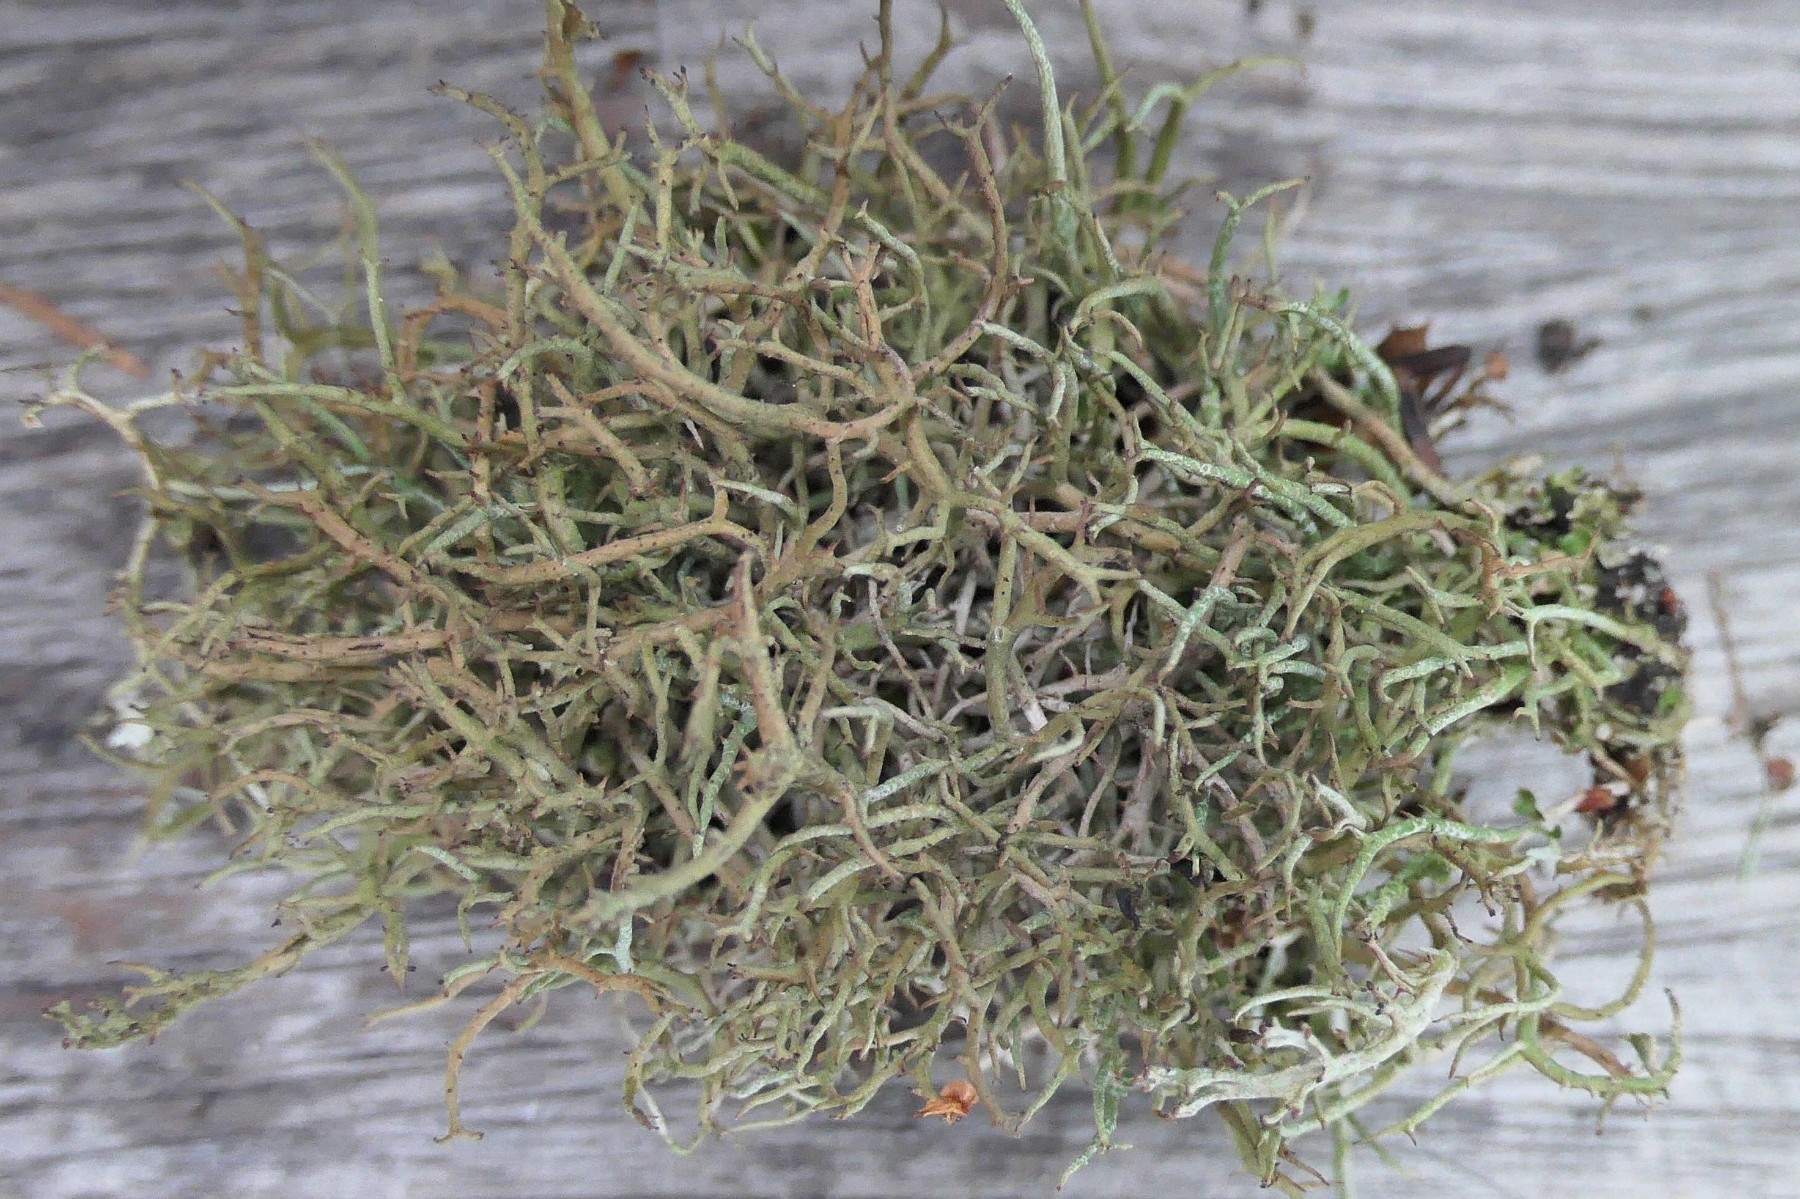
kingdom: Fungi
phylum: Ascomycota
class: Lecanoromycetes
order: Lecanorales
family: Cladoniaceae
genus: Cladonia
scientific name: Cladonia furcata
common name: kløftet bægerlav
